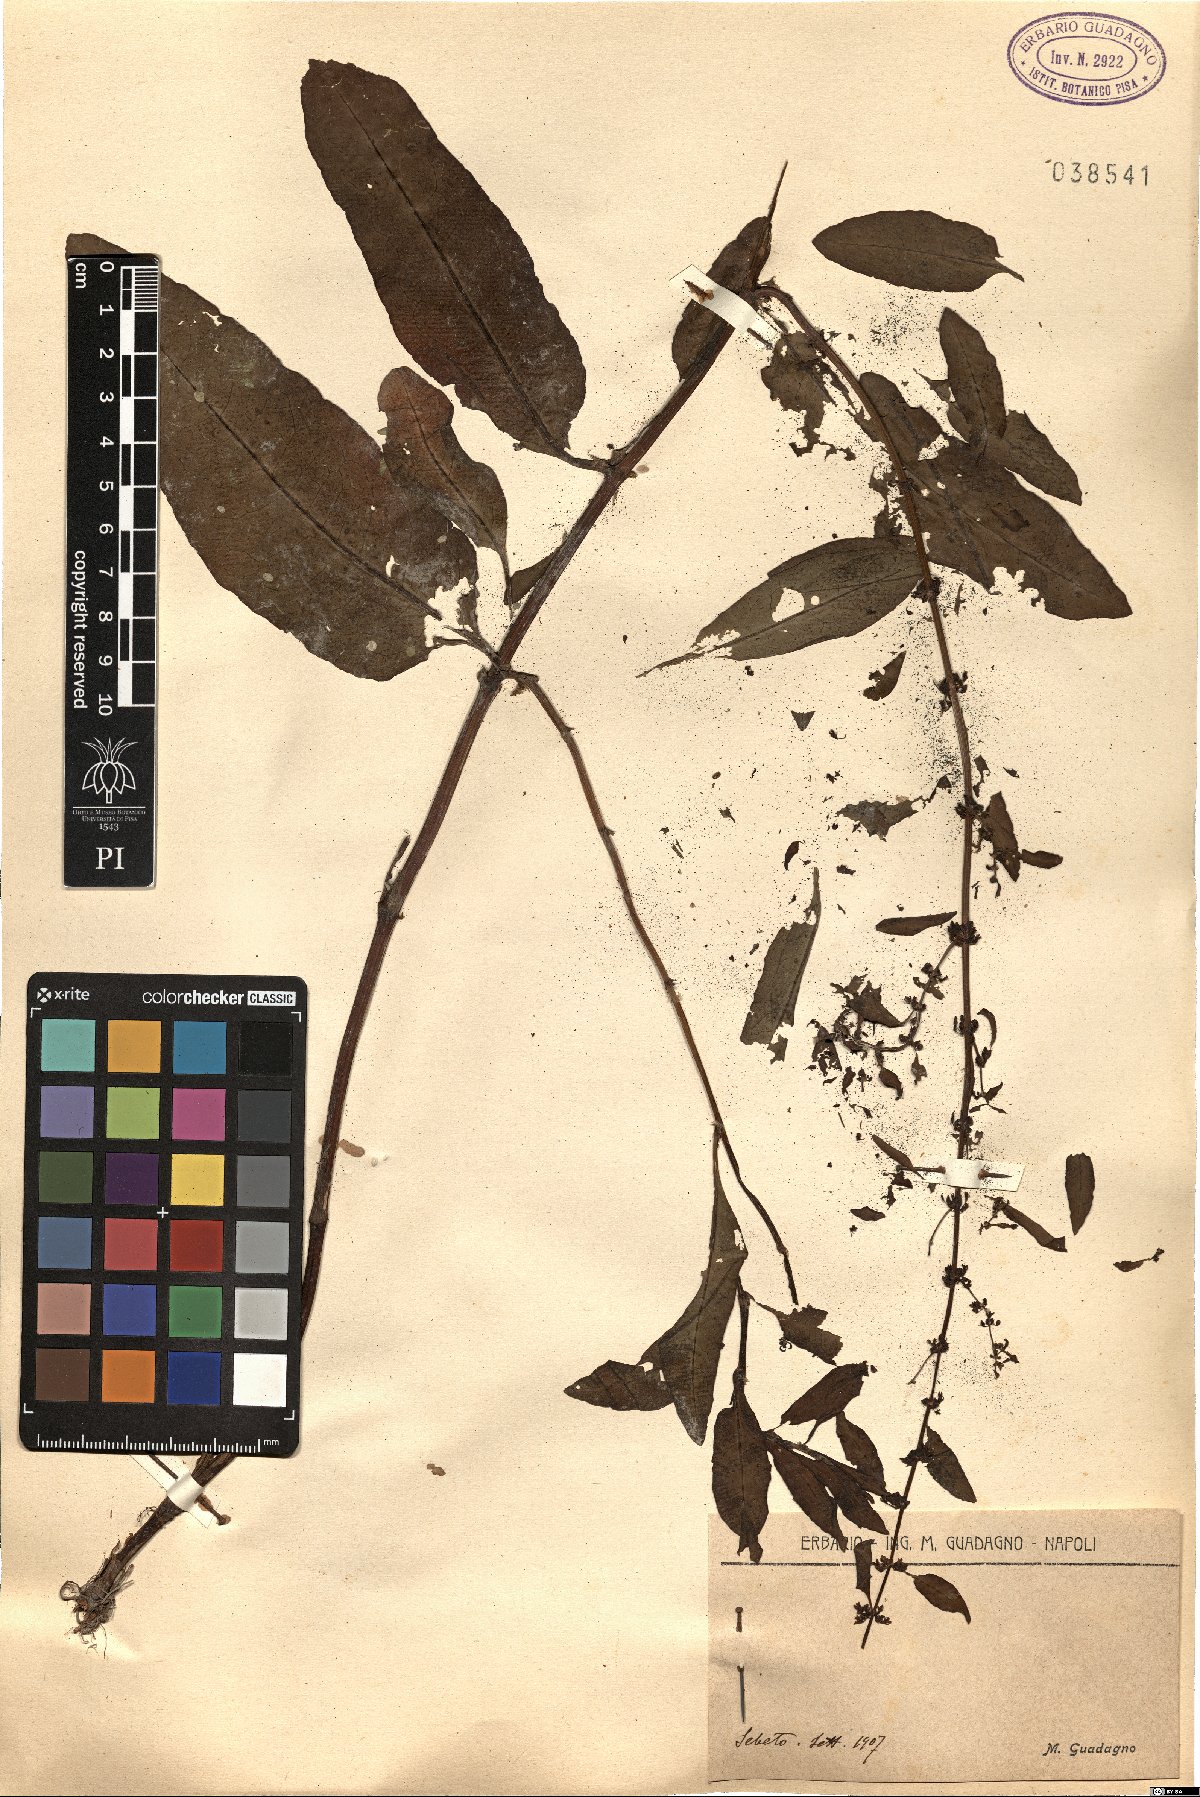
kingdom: Plantae
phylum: Tracheophyta
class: Magnoliopsida
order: Caryophyllales
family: Polygonaceae
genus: Rumex
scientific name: Rumex
